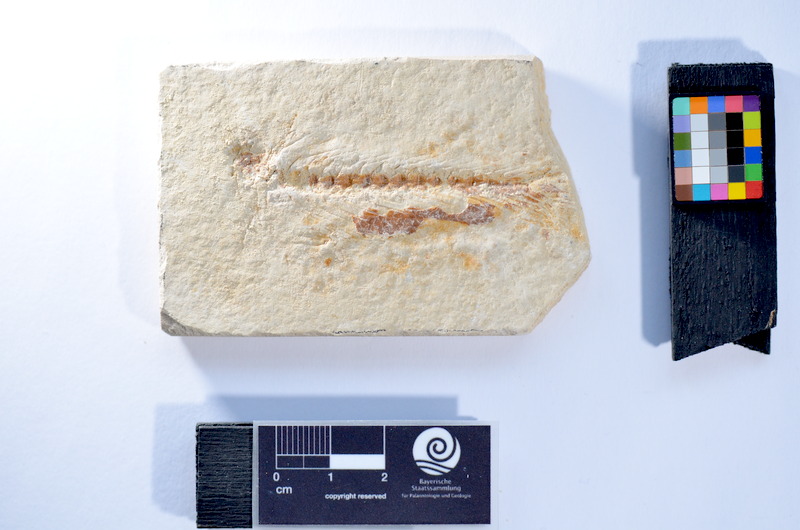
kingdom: Animalia
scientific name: Animalia
